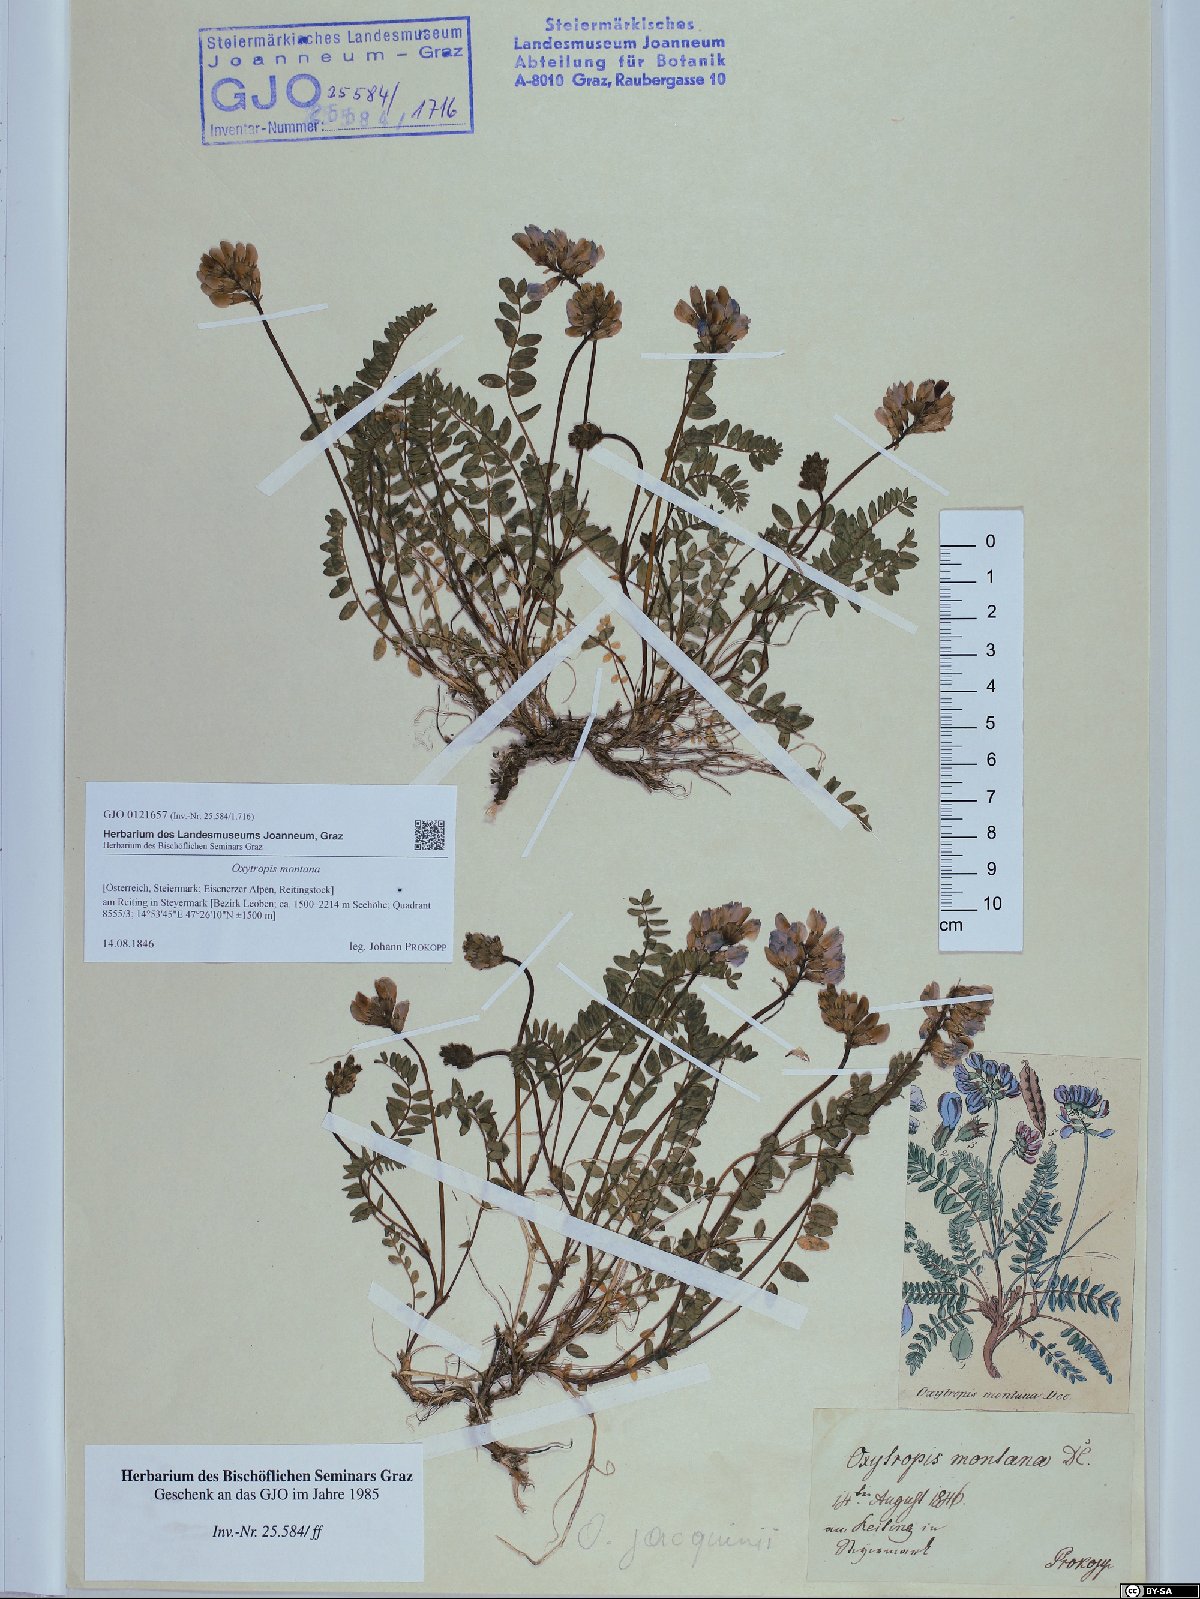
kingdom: Plantae
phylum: Tracheophyta
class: Magnoliopsida
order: Fabales
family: Fabaceae
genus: Oxytropis
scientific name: Oxytropis montana
